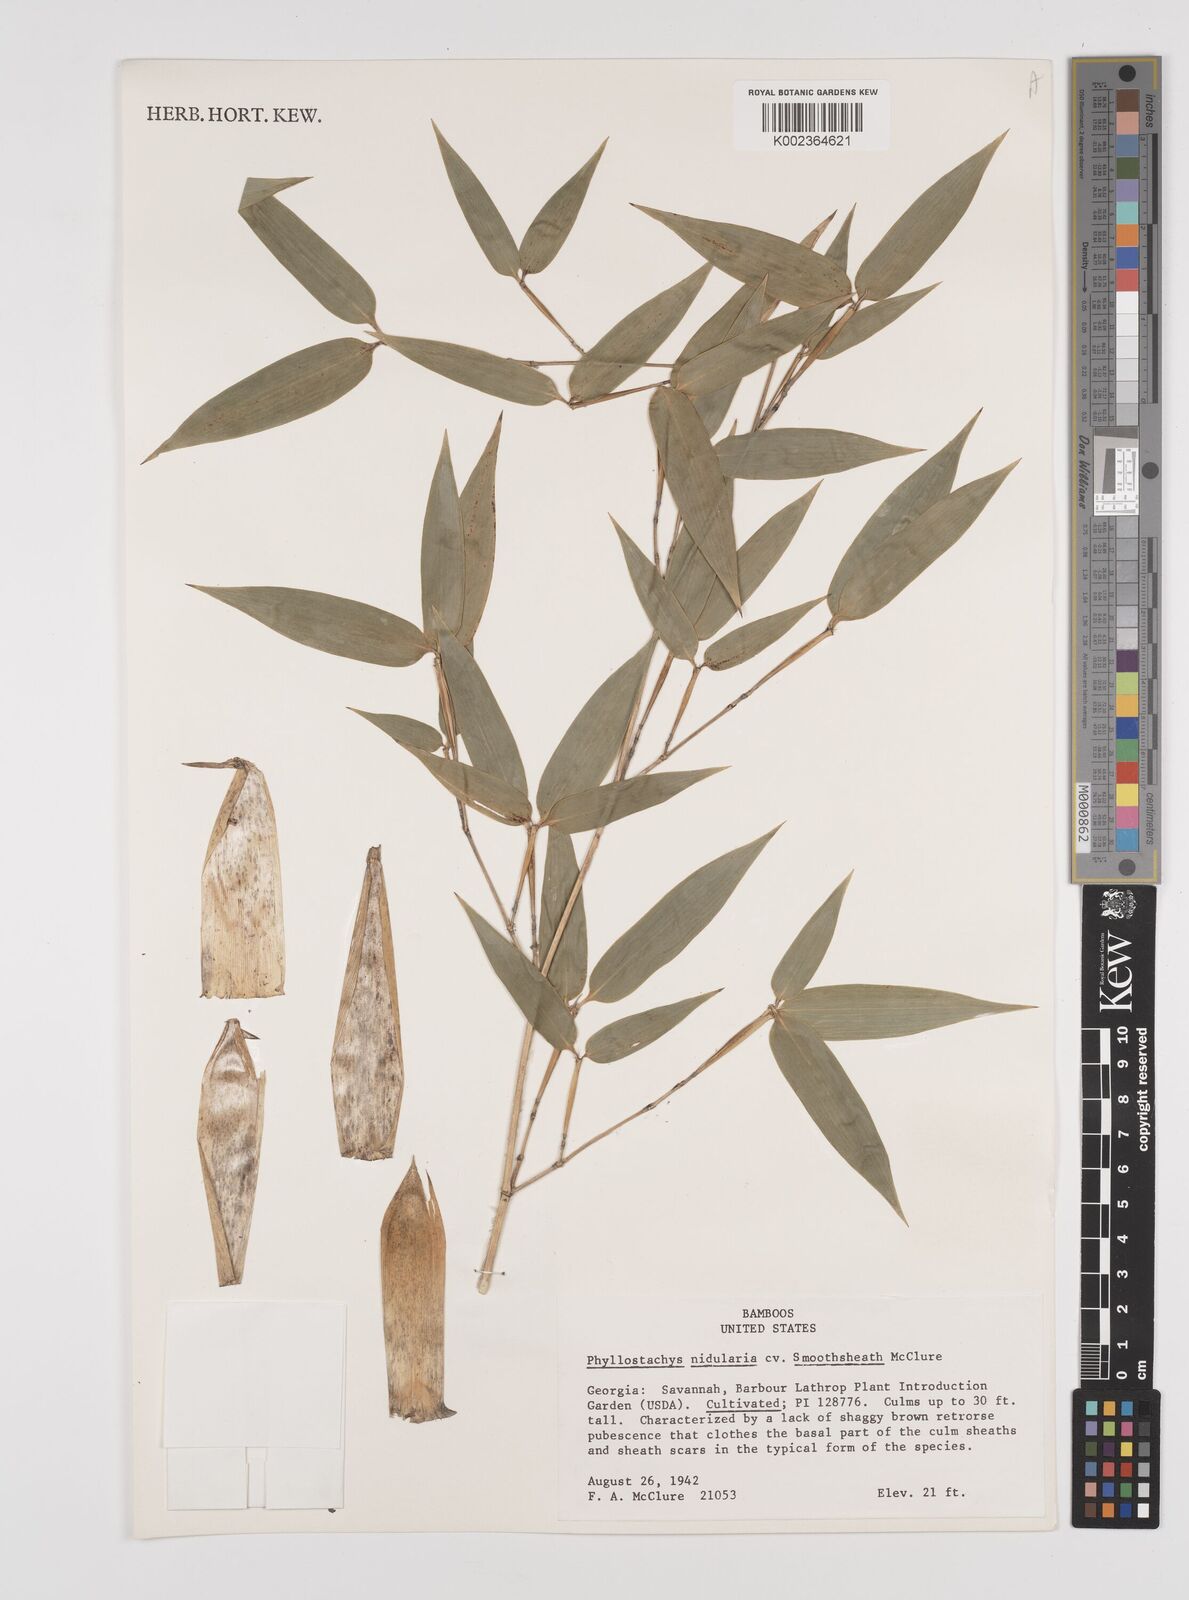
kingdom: Plantae
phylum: Tracheophyta
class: Liliopsida
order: Poales
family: Poaceae
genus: Phyllostachys
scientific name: Phyllostachys nidularia
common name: Broom bamboo
